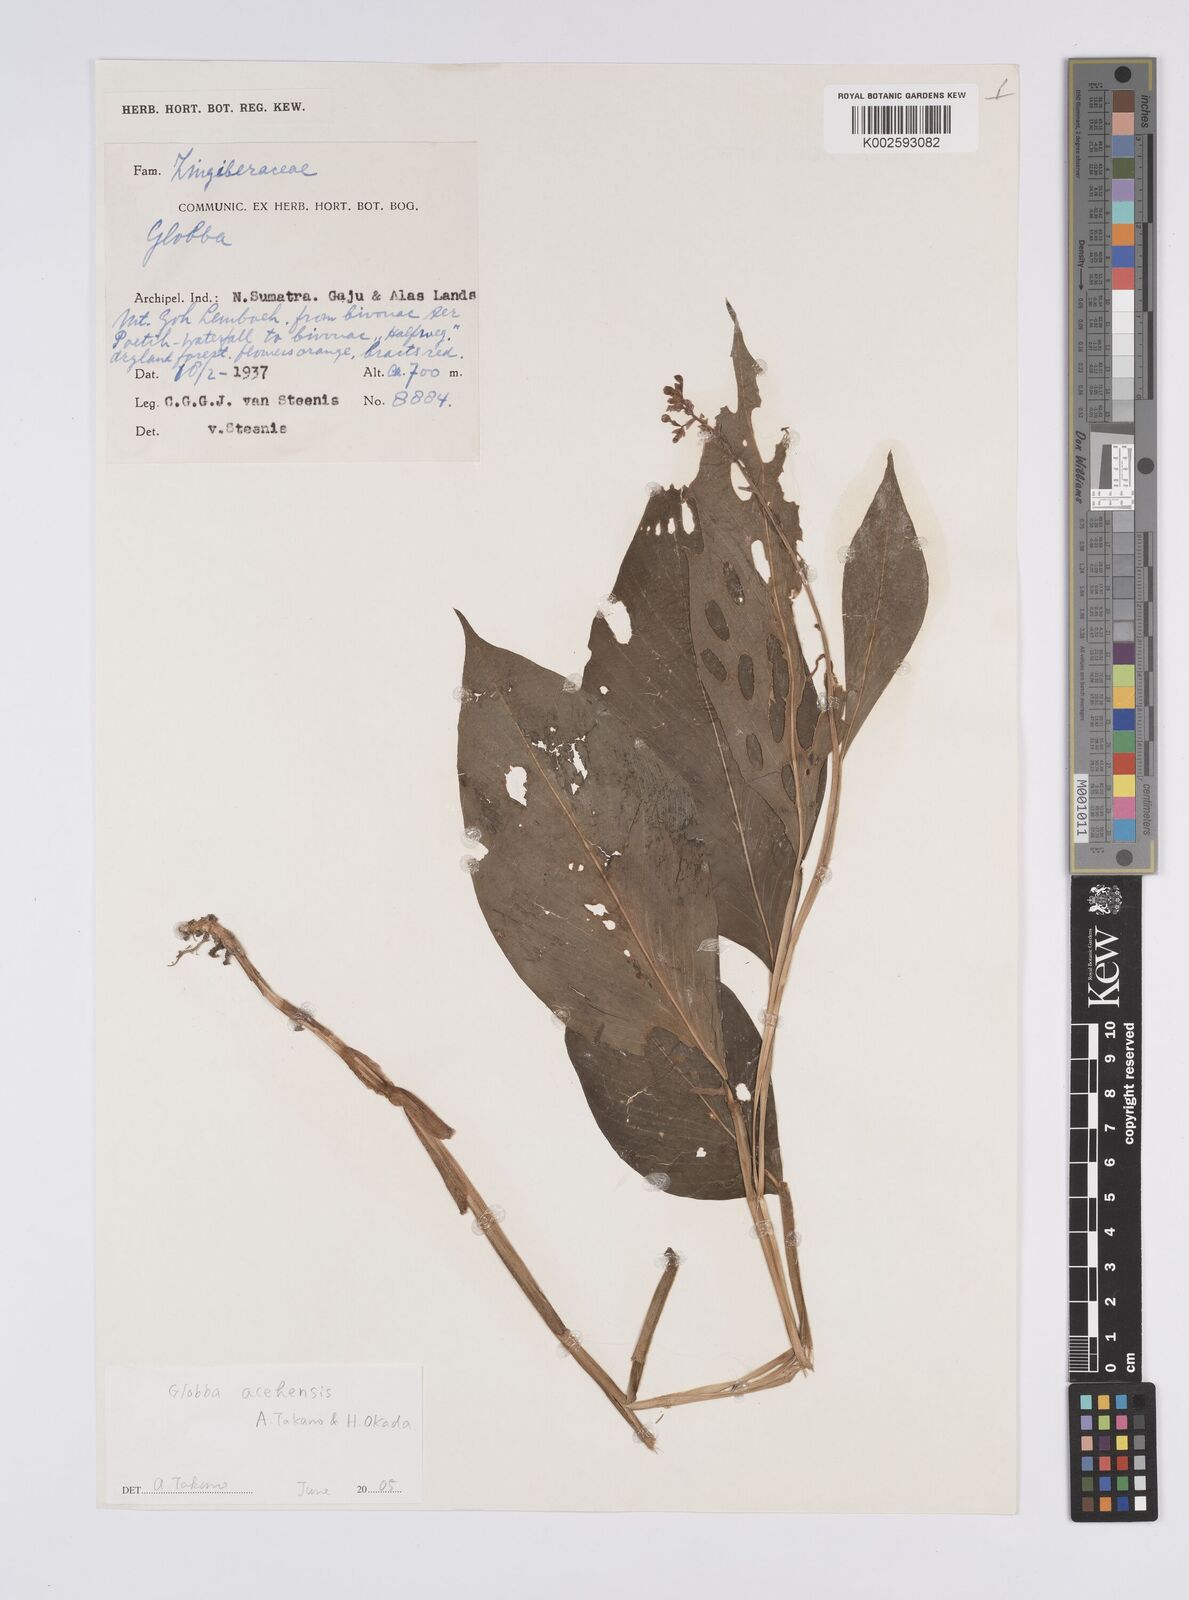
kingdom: Plantae
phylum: Tracheophyta
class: Liliopsida
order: Zingiberales
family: Zingiberaceae
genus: Globba
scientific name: Globba acehensis
